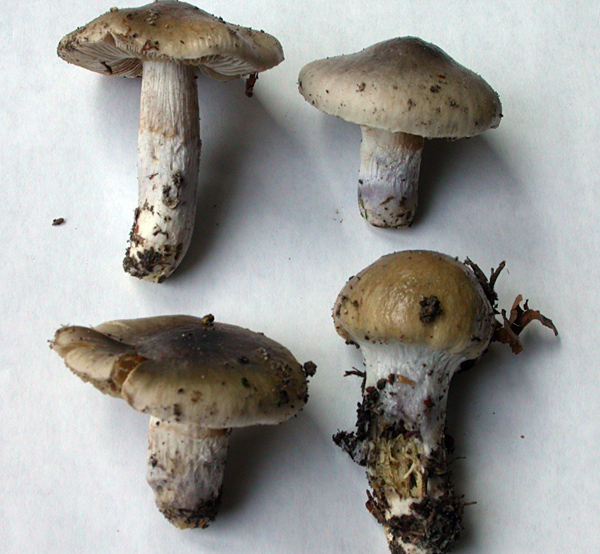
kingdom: Fungi
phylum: Basidiomycota
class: Agaricomycetes
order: Agaricales
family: Cortinariaceae
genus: Cortinarius
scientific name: Cortinarius livido-ochraceus
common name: halvhøj slørhat
